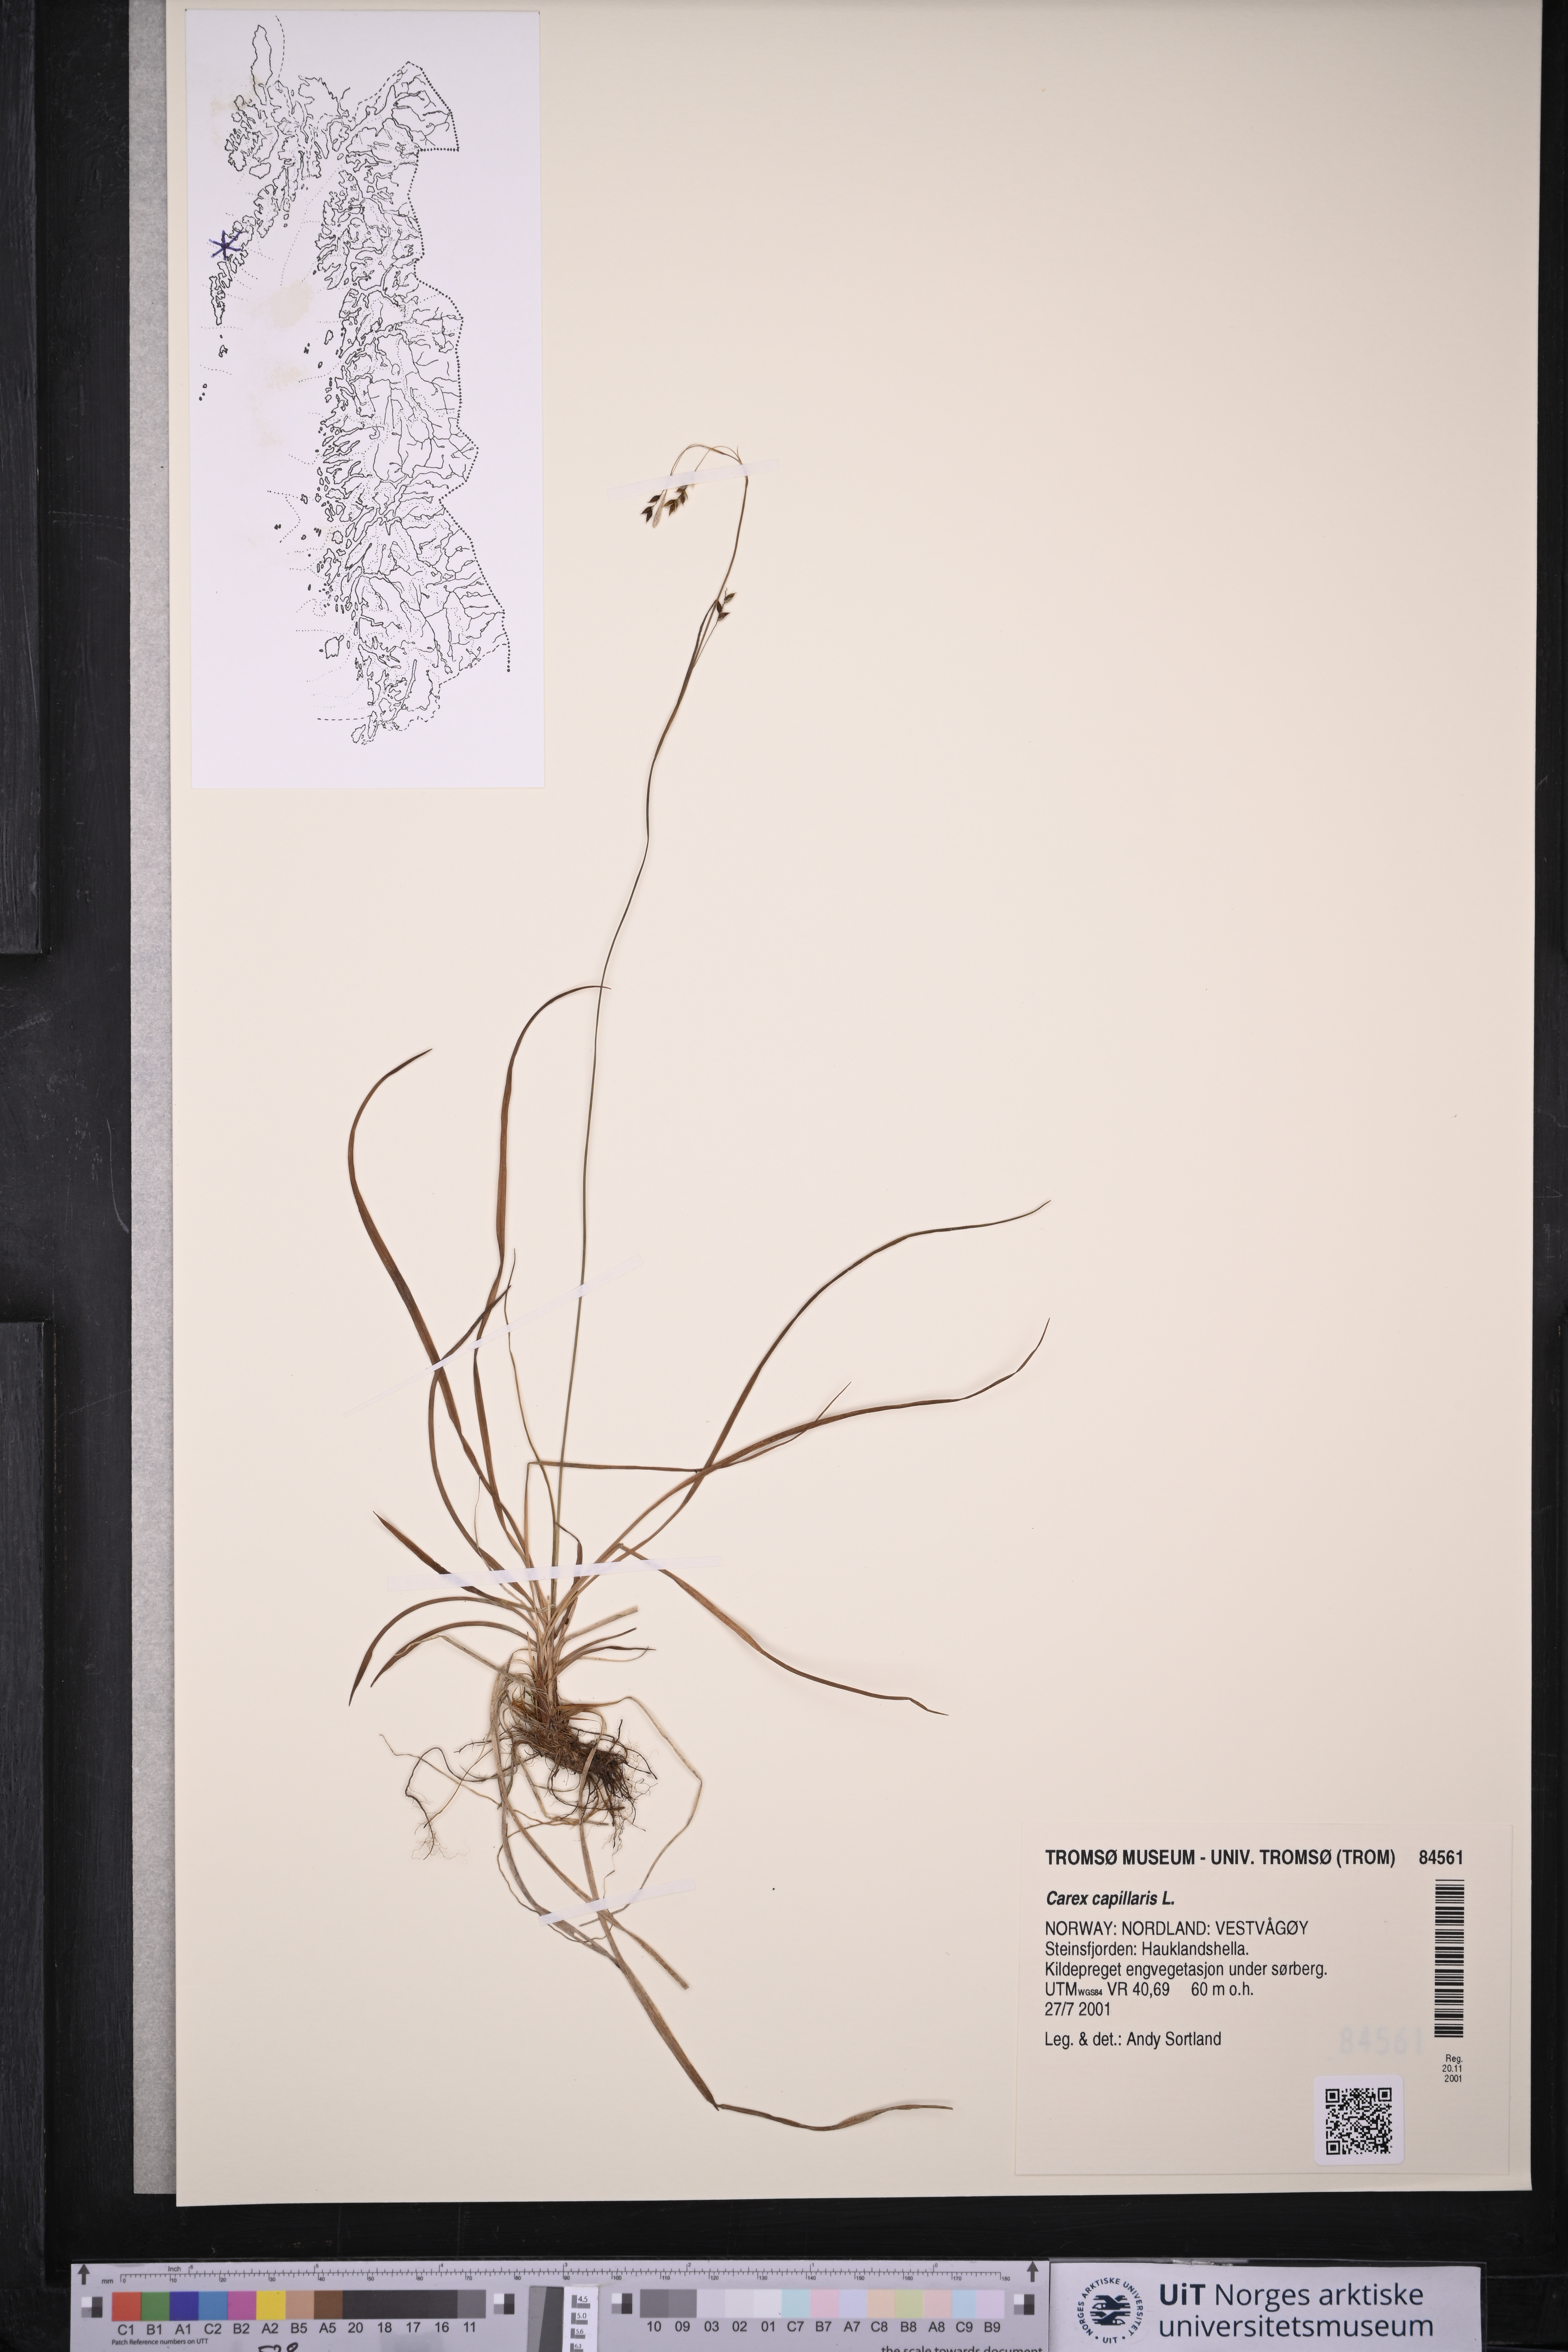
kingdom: Plantae
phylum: Tracheophyta
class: Liliopsida
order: Poales
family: Cyperaceae
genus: Carex
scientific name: Carex capillaris
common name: Hair sedge
